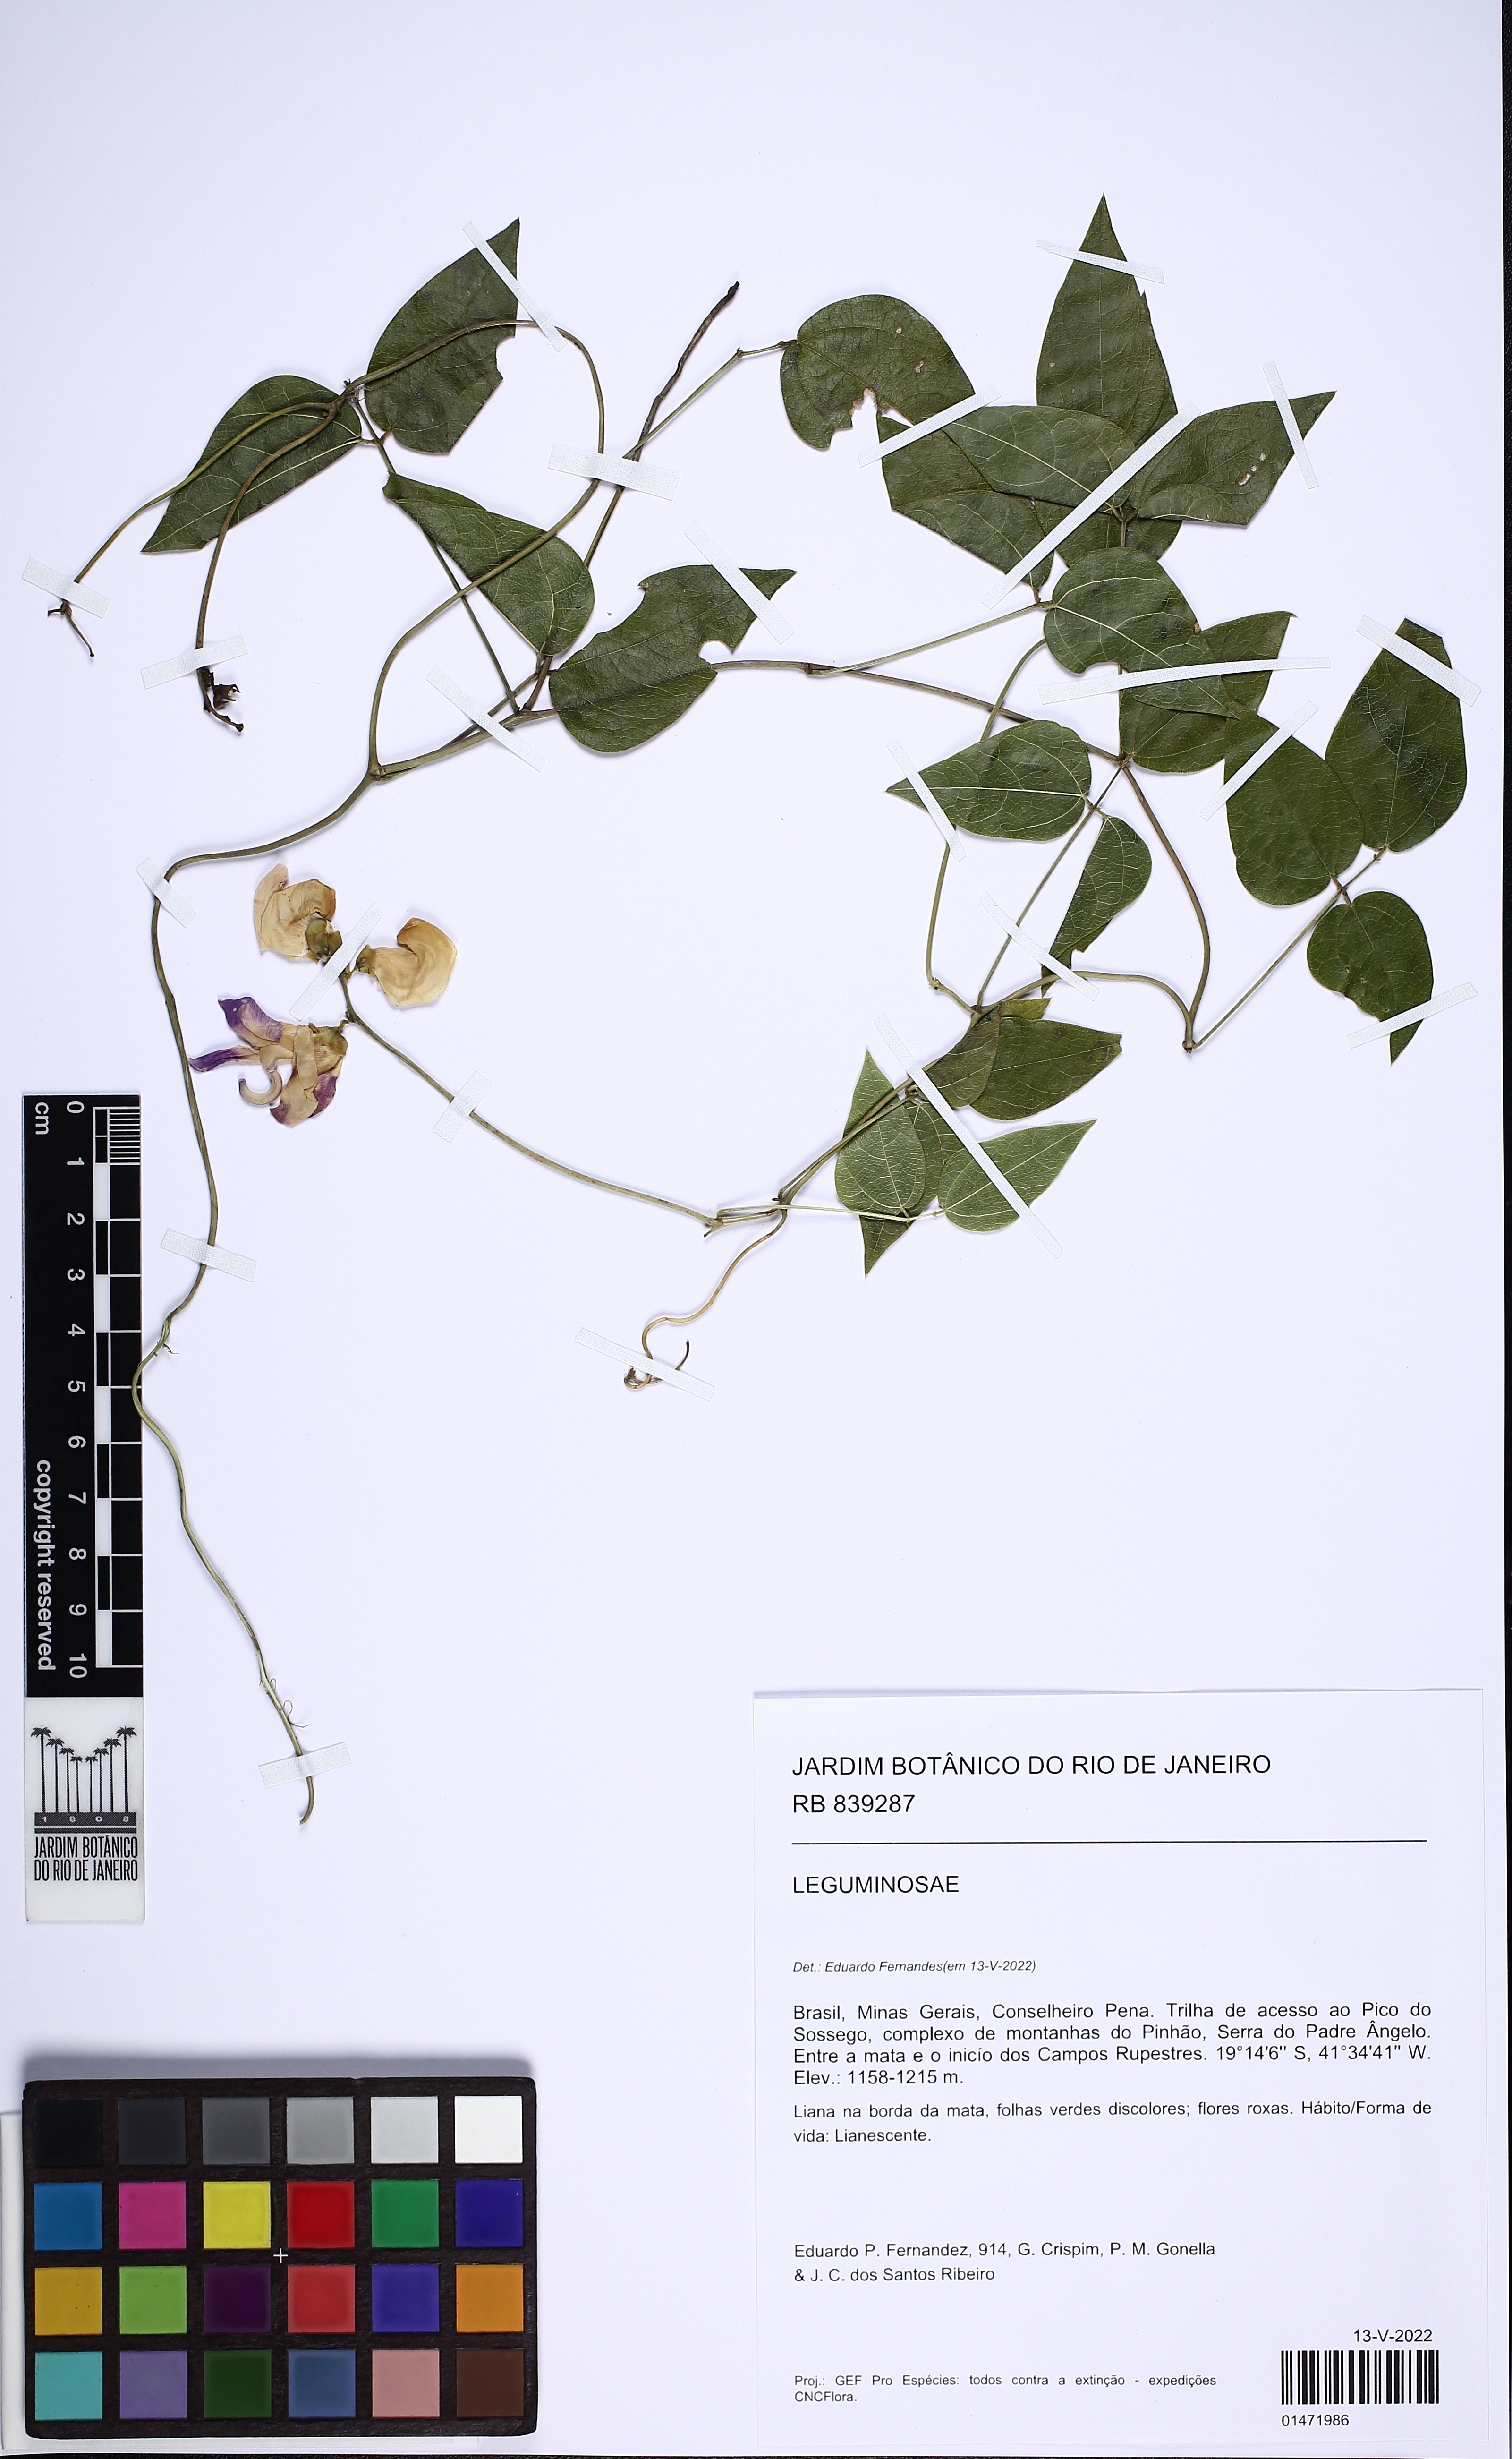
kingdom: Plantae
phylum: Tracheophyta
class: Magnoliopsida
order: Fabales
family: Fabaceae
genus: Macroptilium
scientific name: Macroptilium
